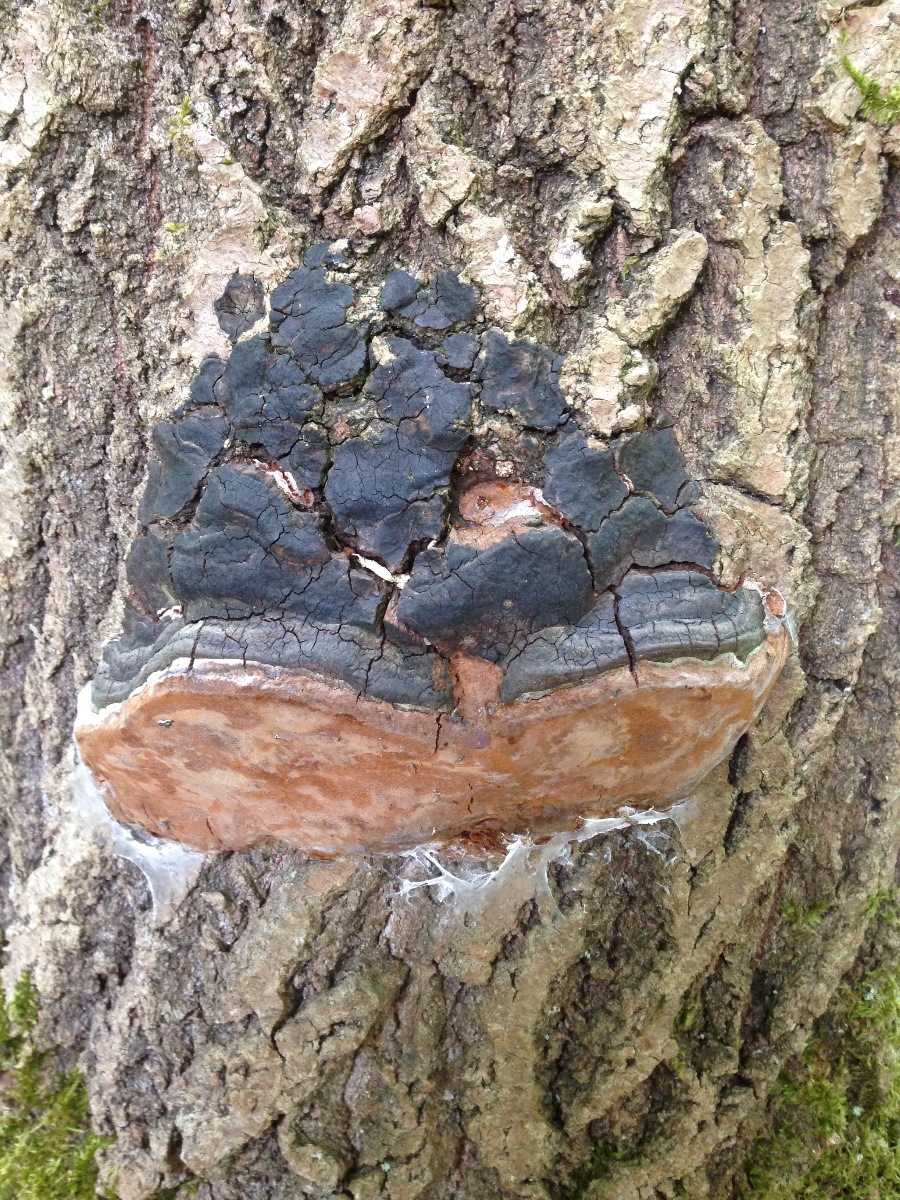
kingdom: Fungi
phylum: Basidiomycota
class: Agaricomycetes
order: Hymenochaetales
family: Hymenochaetaceae
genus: Phellinus
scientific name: Phellinus tremulae
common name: aspe-ildporesvamp
